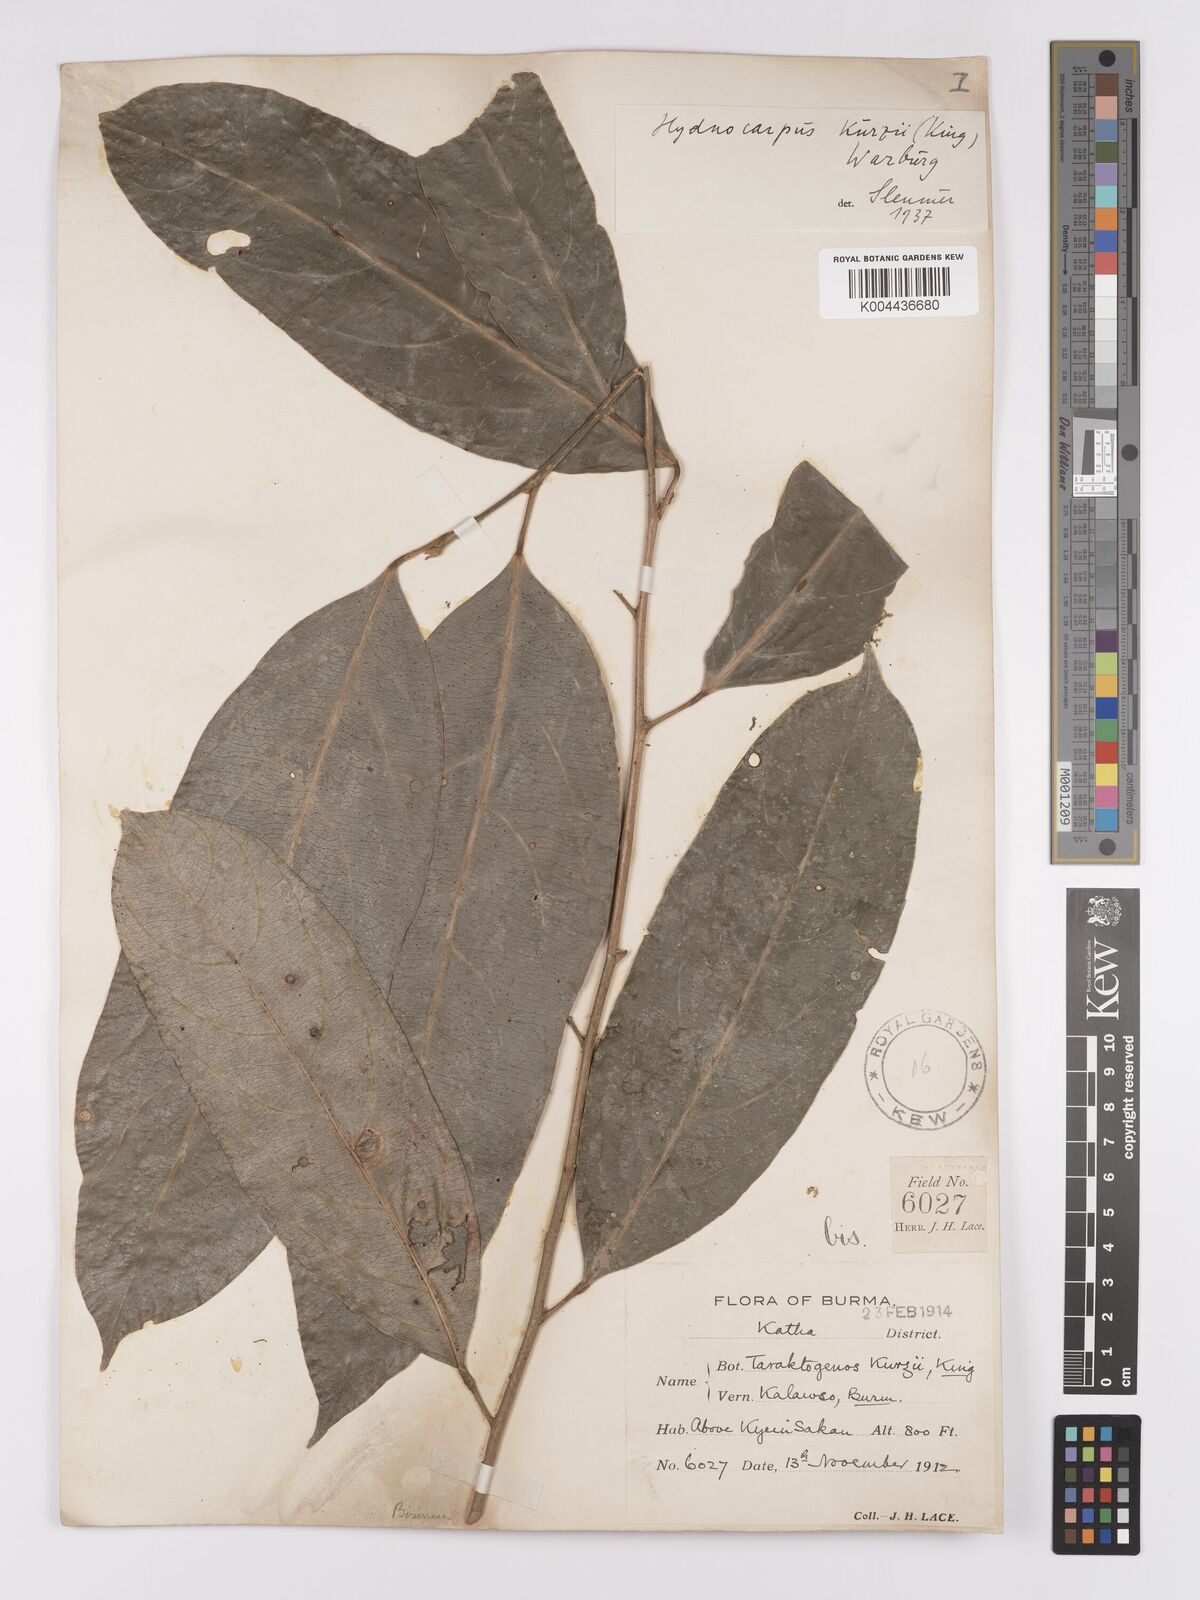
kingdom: Plantae
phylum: Tracheophyta
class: Magnoliopsida
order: Malpighiales
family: Achariaceae
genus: Hydnocarpus
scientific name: Hydnocarpus kurzii
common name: Chaulmoogra
